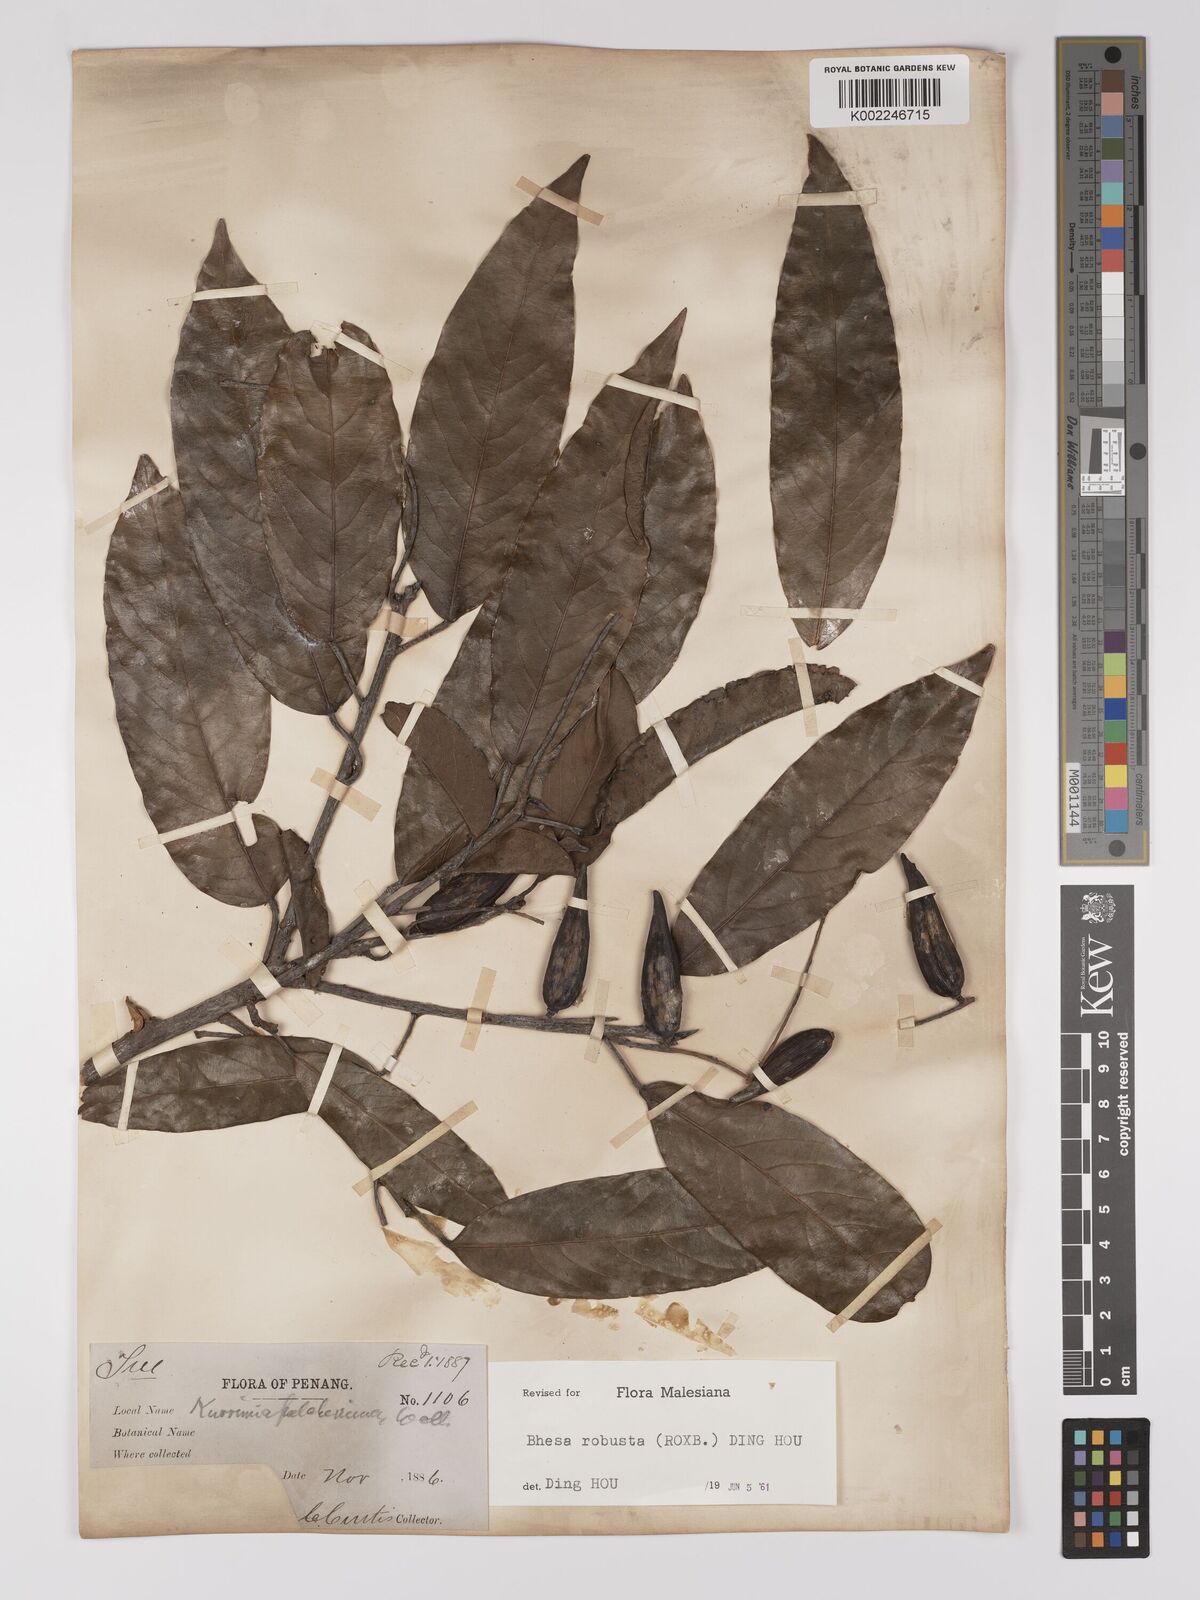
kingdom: Plantae
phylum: Tracheophyta
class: Magnoliopsida
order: Malpighiales
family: Centroplacaceae
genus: Bhesa
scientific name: Bhesa robusta
